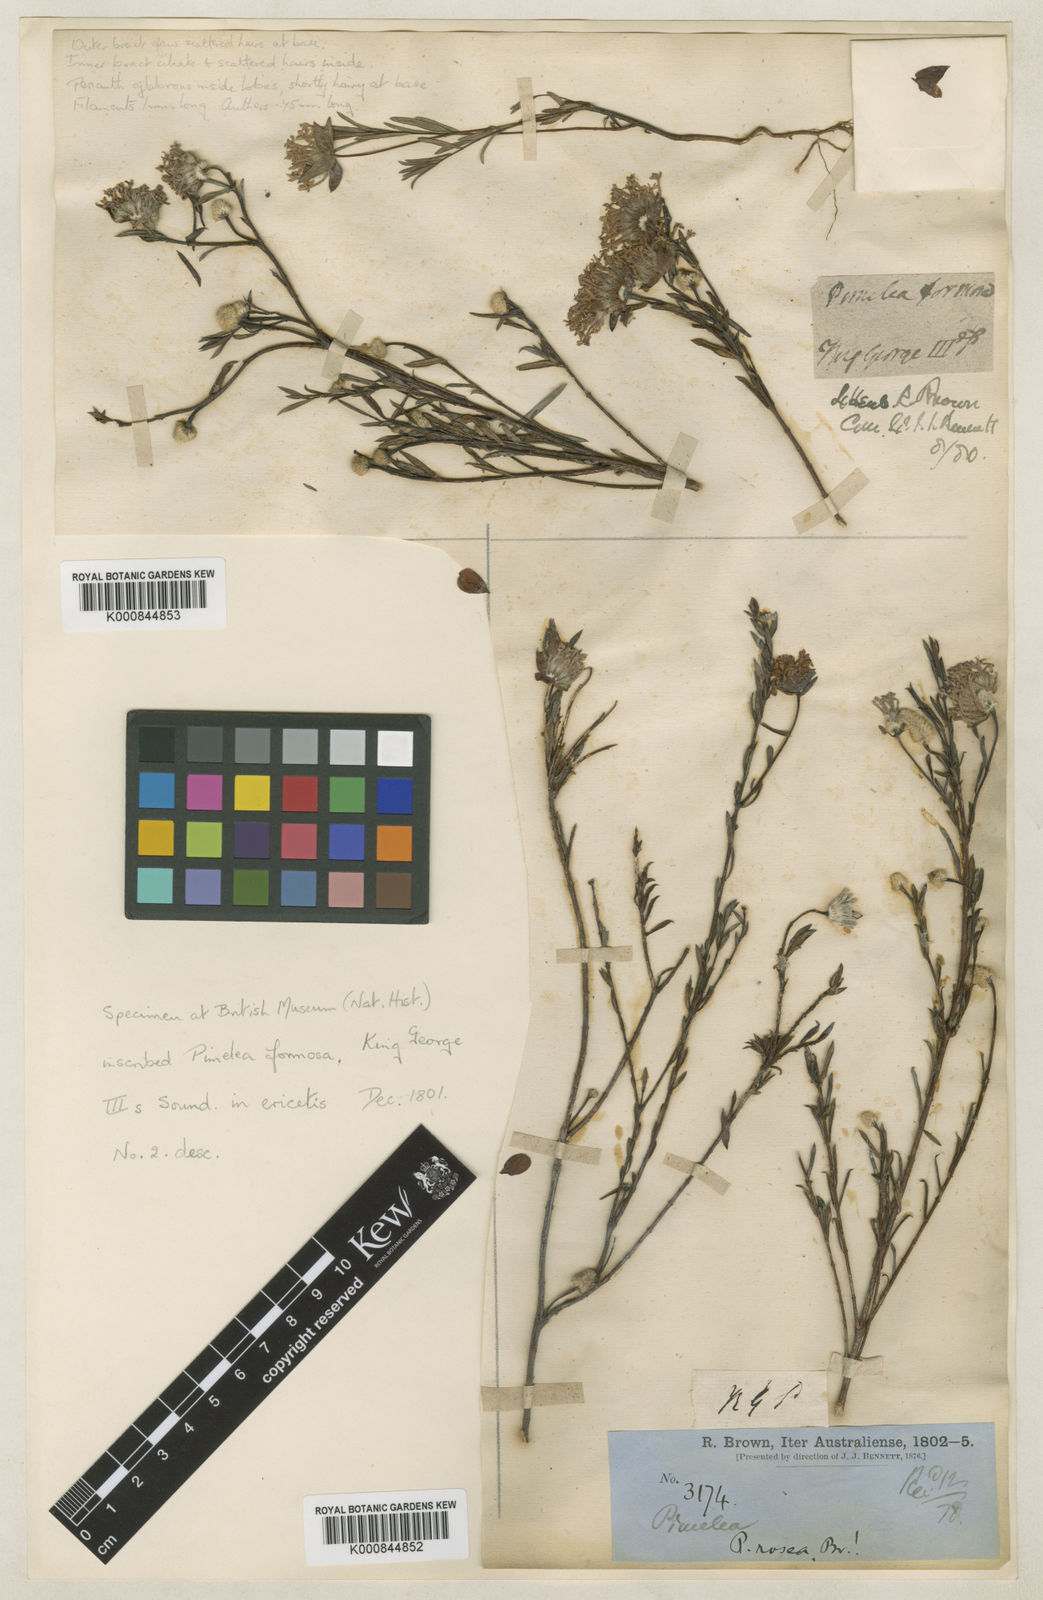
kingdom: Plantae
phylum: Tracheophyta
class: Magnoliopsida
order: Malvales
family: Thymelaeaceae
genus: Pimelea
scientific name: Pimelea rosea
